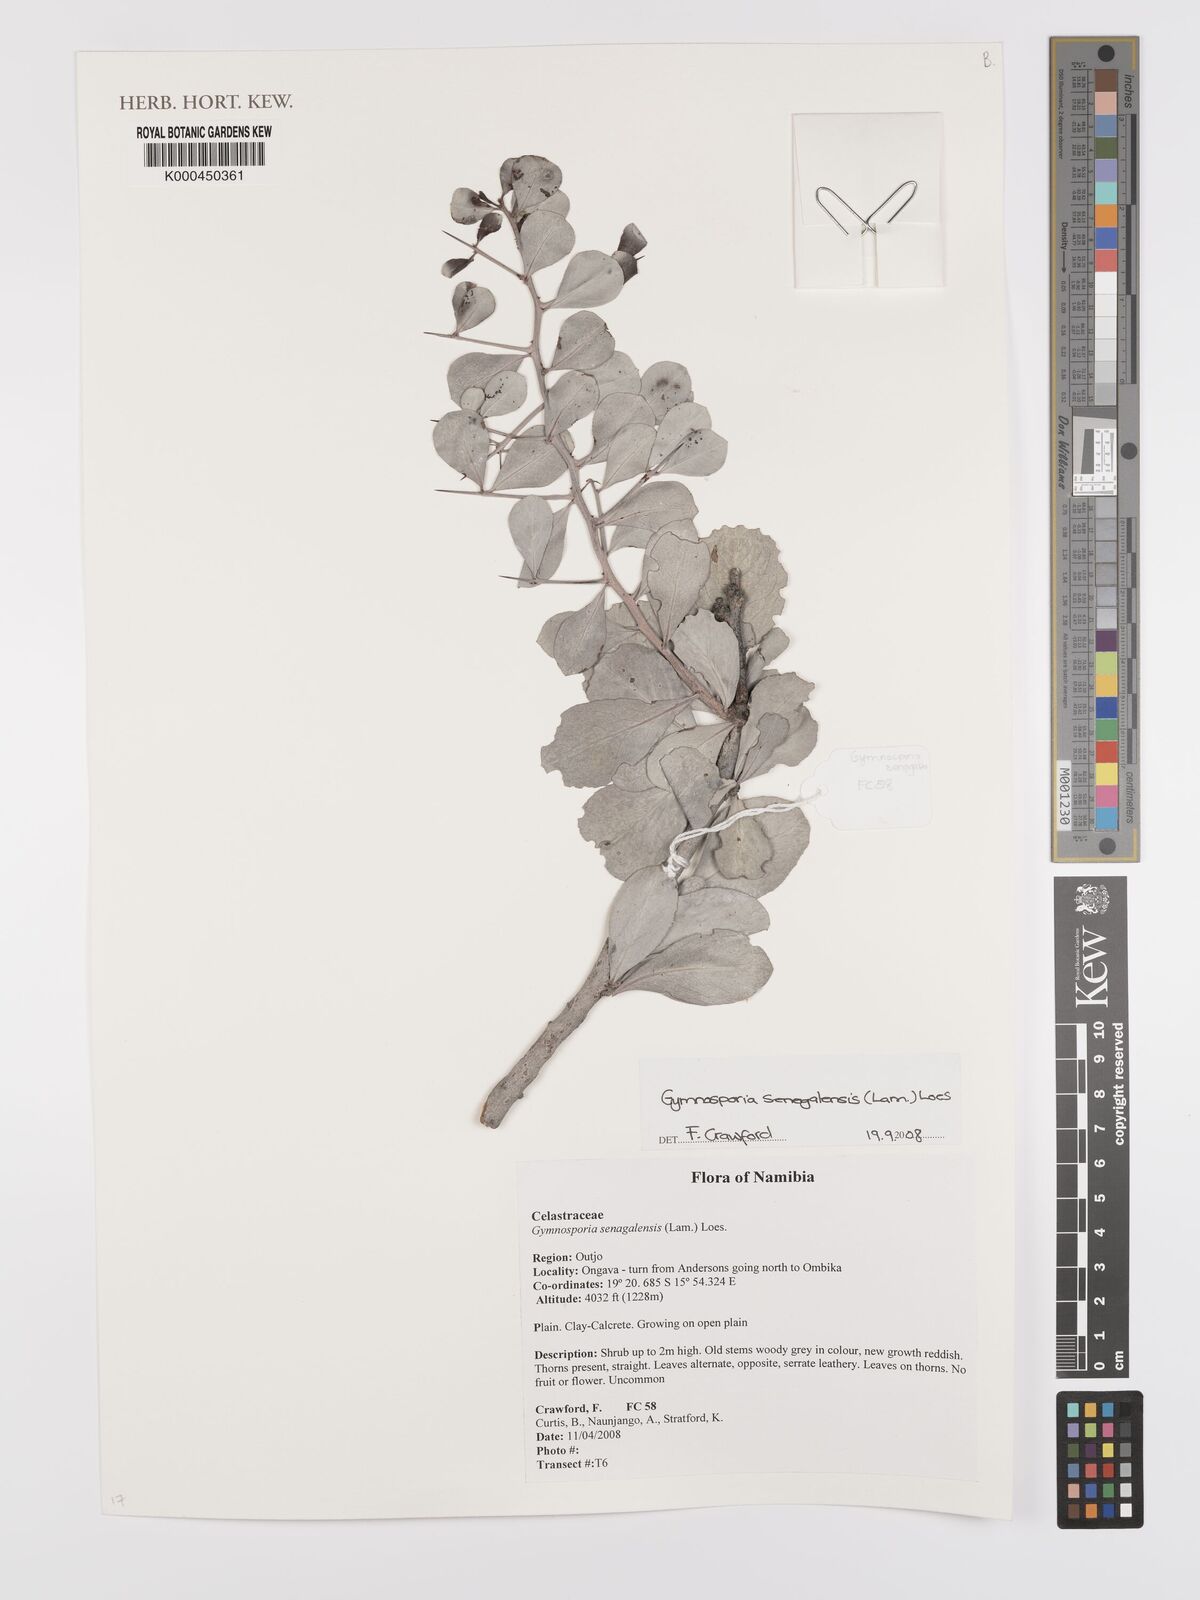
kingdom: Plantae
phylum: Tracheophyta
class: Magnoliopsida
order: Celastrales
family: Celastraceae
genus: Gymnosporia
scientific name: Gymnosporia senegalensis
